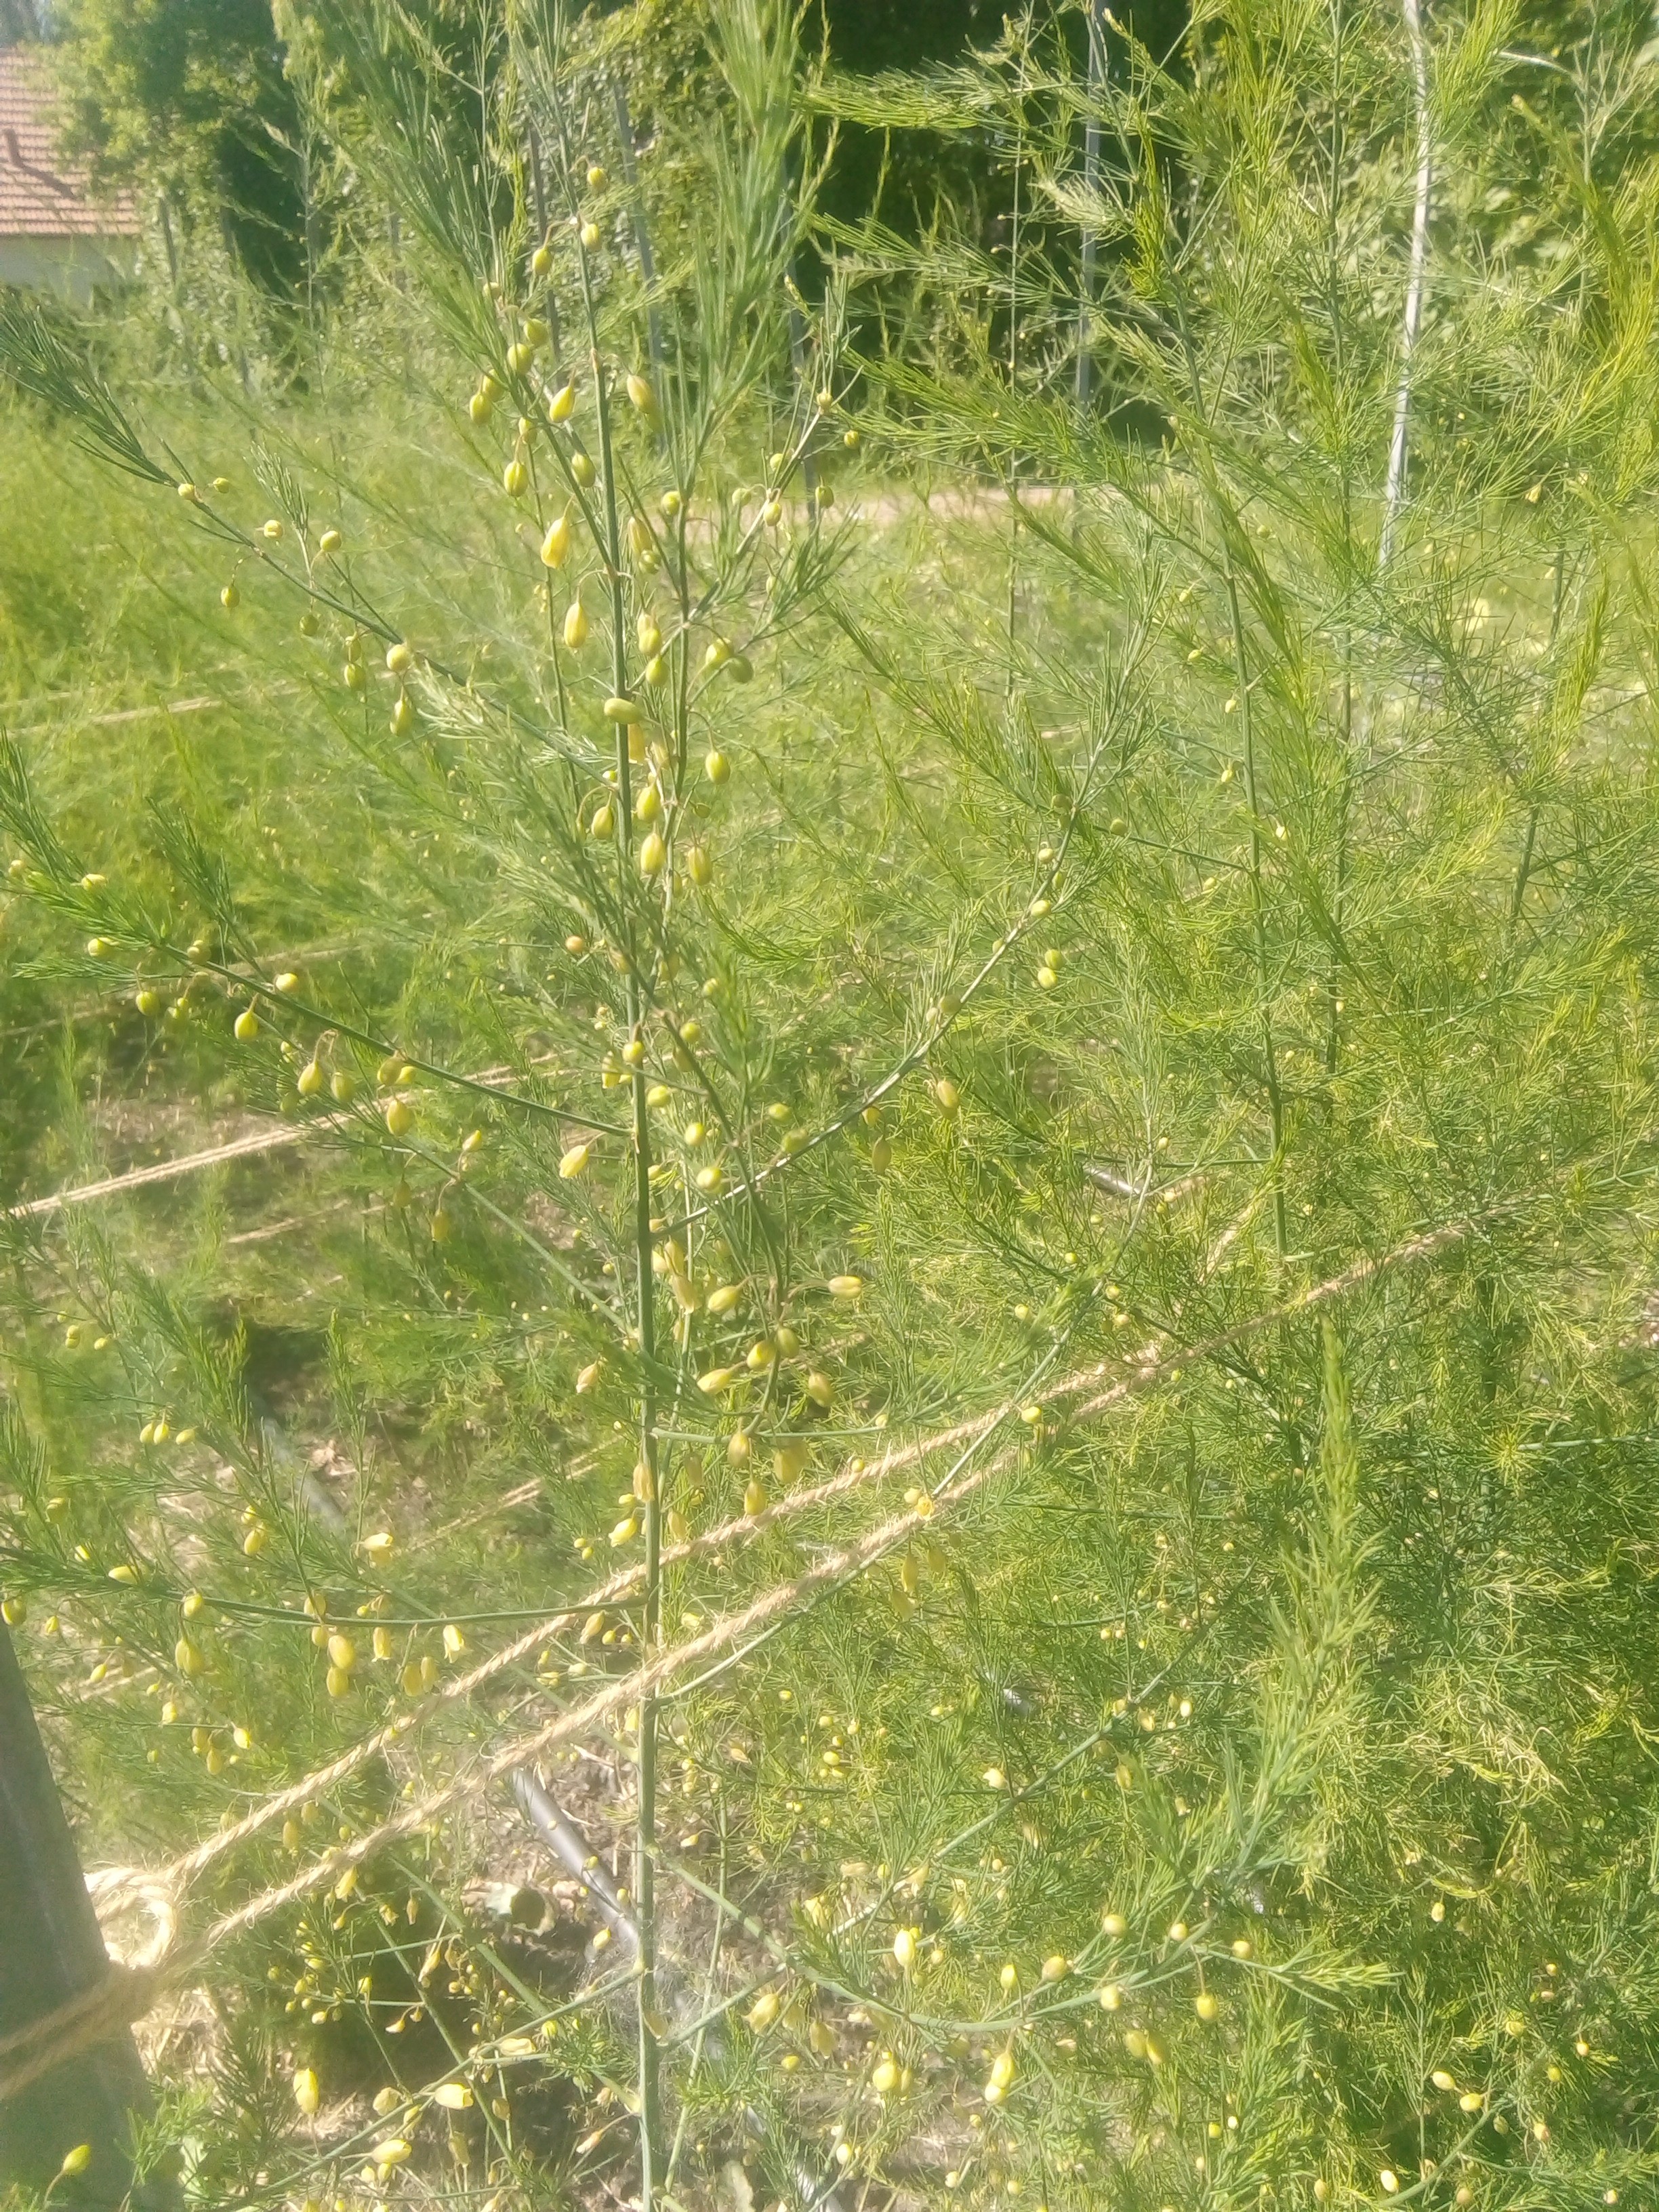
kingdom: Plantae
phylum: Tracheophyta
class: Liliopsida
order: Asparagales
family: Asparagaceae
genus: Asparagus
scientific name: Asparagus officinalis
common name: Garden asparagus
